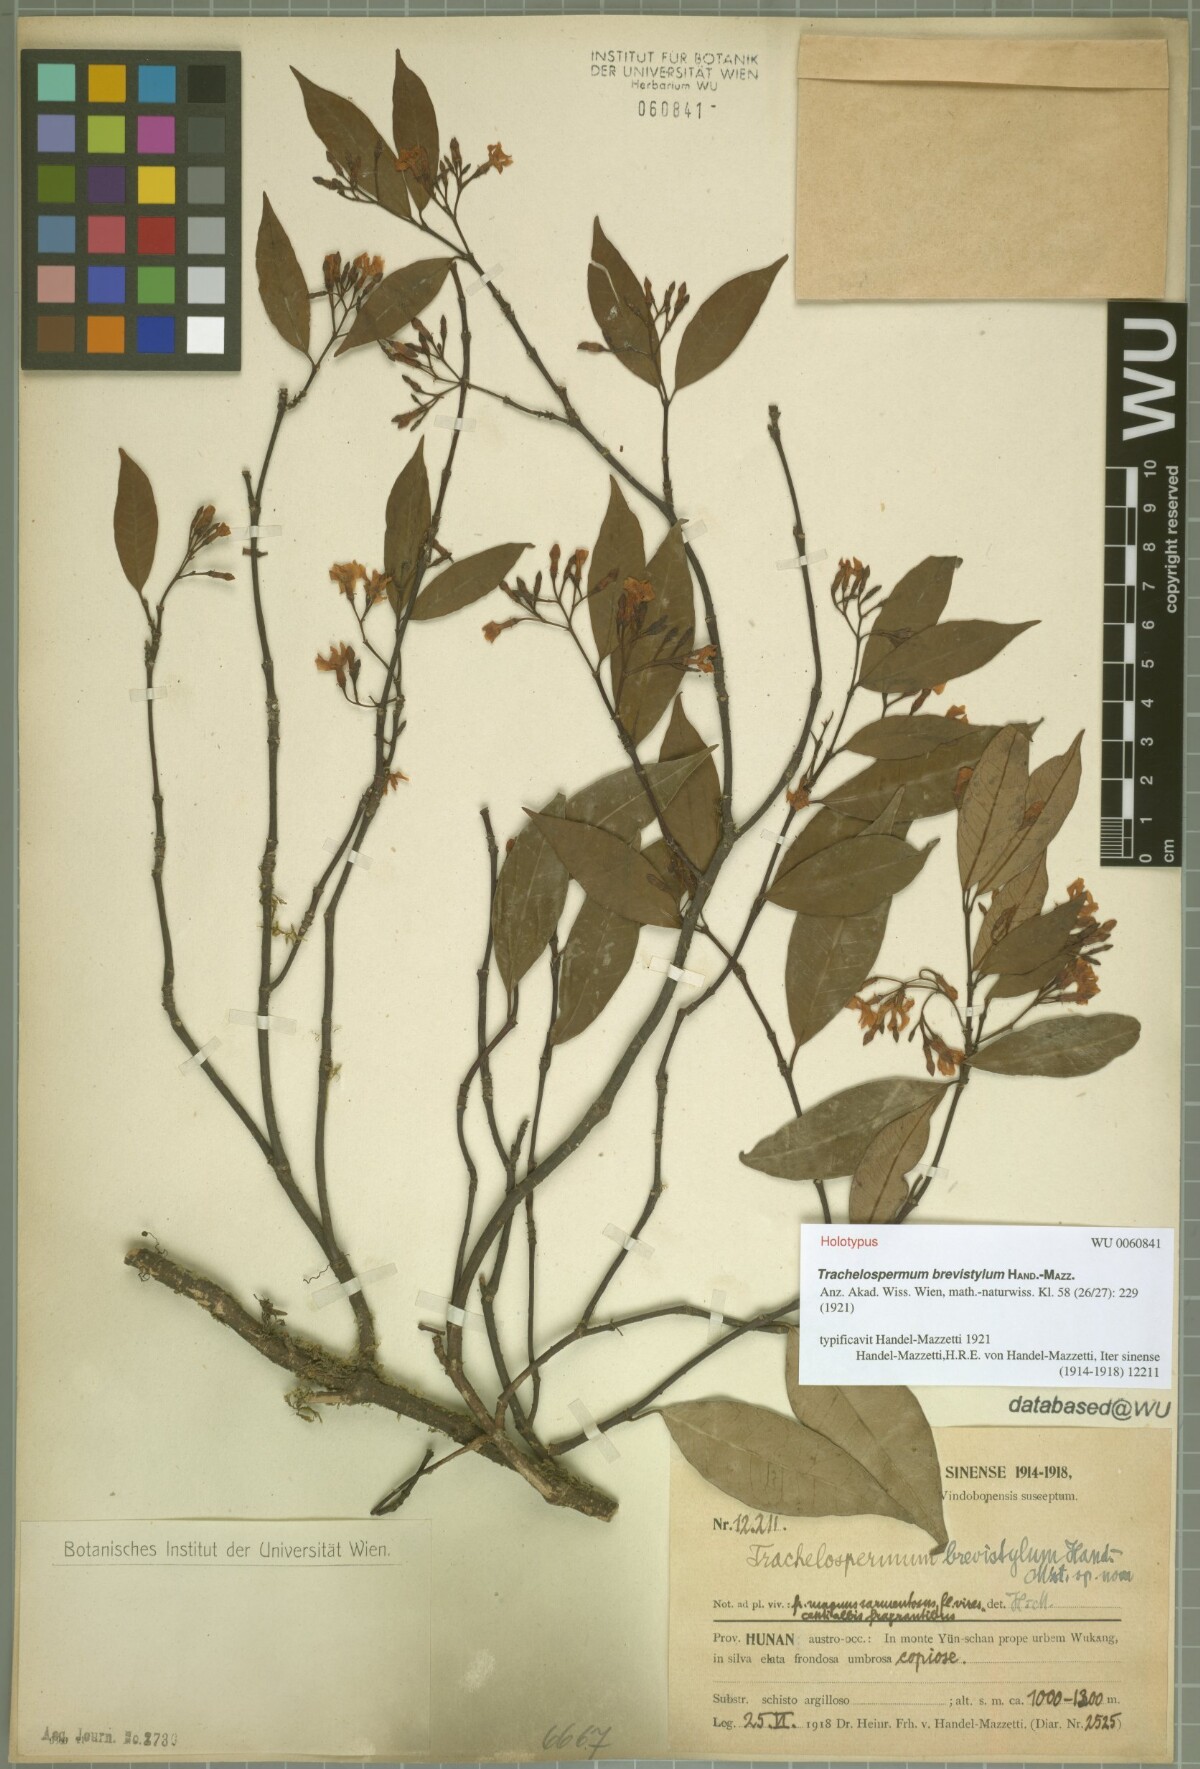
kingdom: Plantae
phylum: Tracheophyta
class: Magnoliopsida
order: Gentianales
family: Apocynaceae
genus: Trachelospermum
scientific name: Trachelospermum brevistylum
